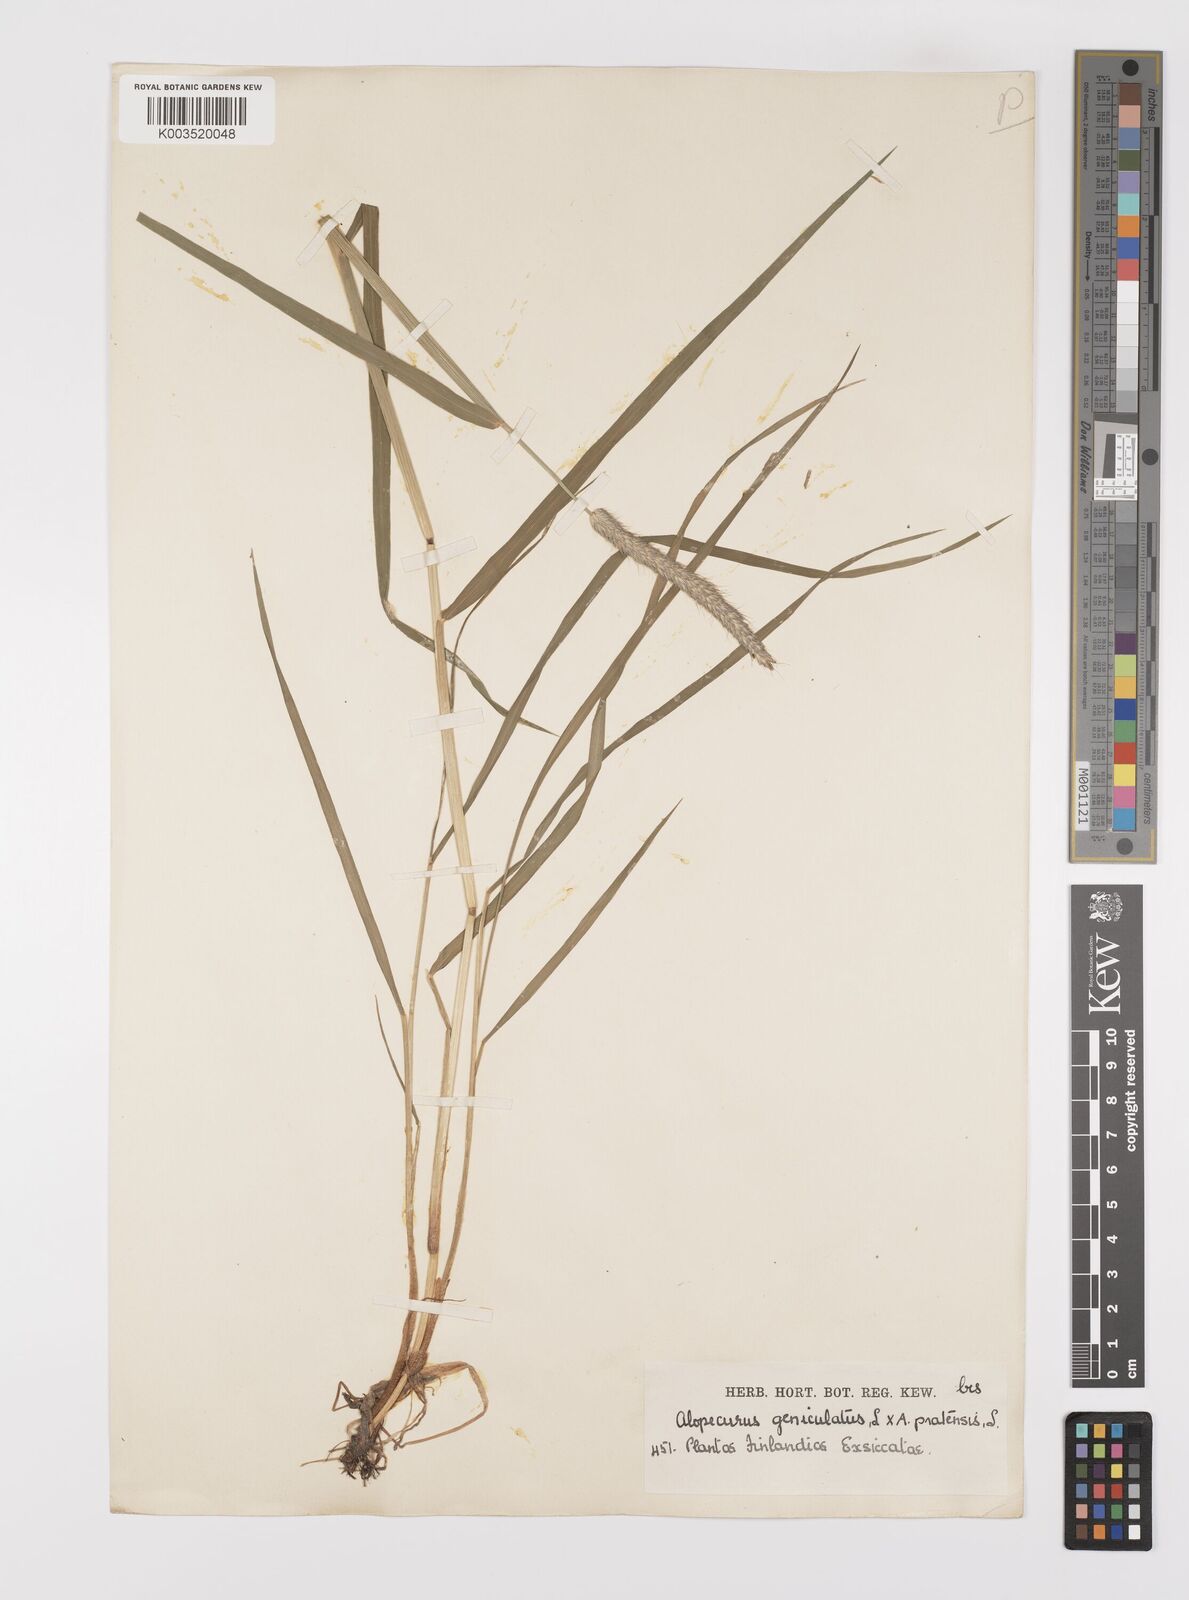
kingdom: Plantae
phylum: Tracheophyta
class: Liliopsida
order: Poales
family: Poaceae
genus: Alopecurus
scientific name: Alopecurus brachystylus
